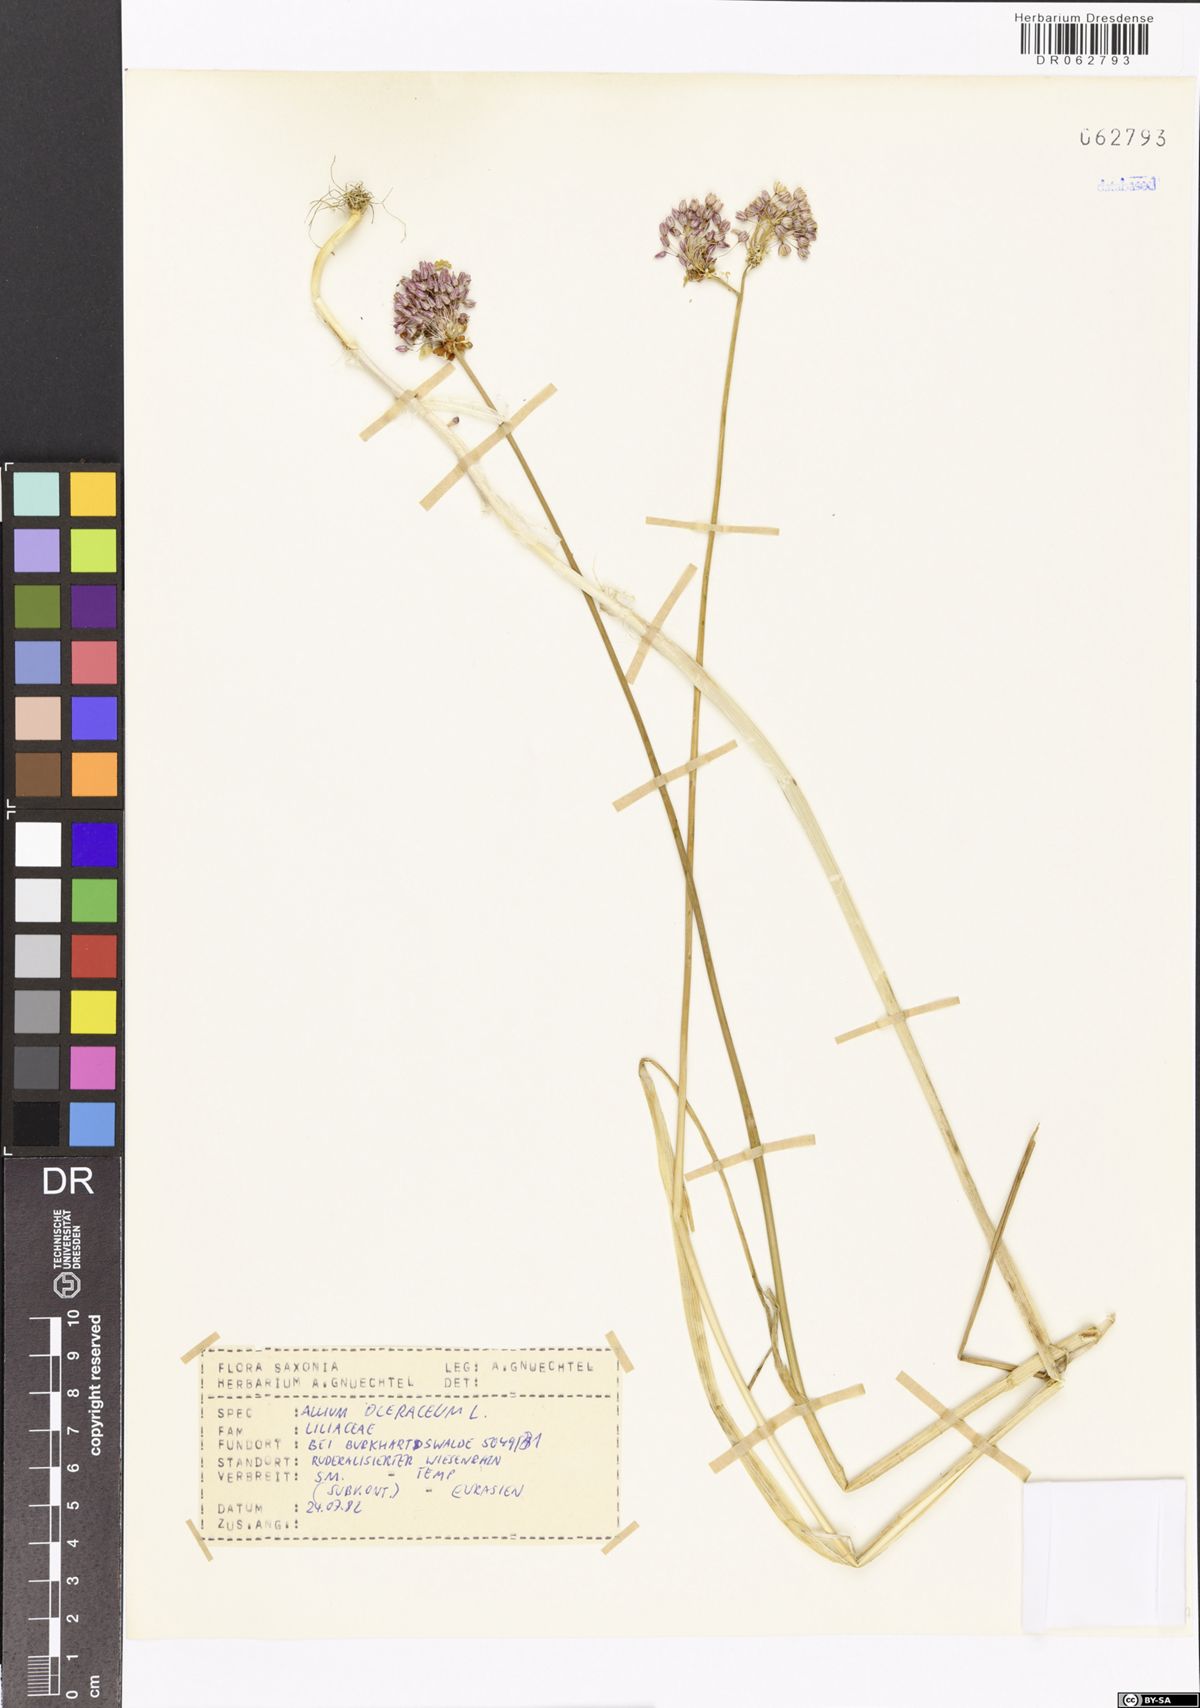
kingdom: Plantae
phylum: Tracheophyta
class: Liliopsida
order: Asparagales
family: Amaryllidaceae
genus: Allium
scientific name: Allium oleraceum
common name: Field garlic
